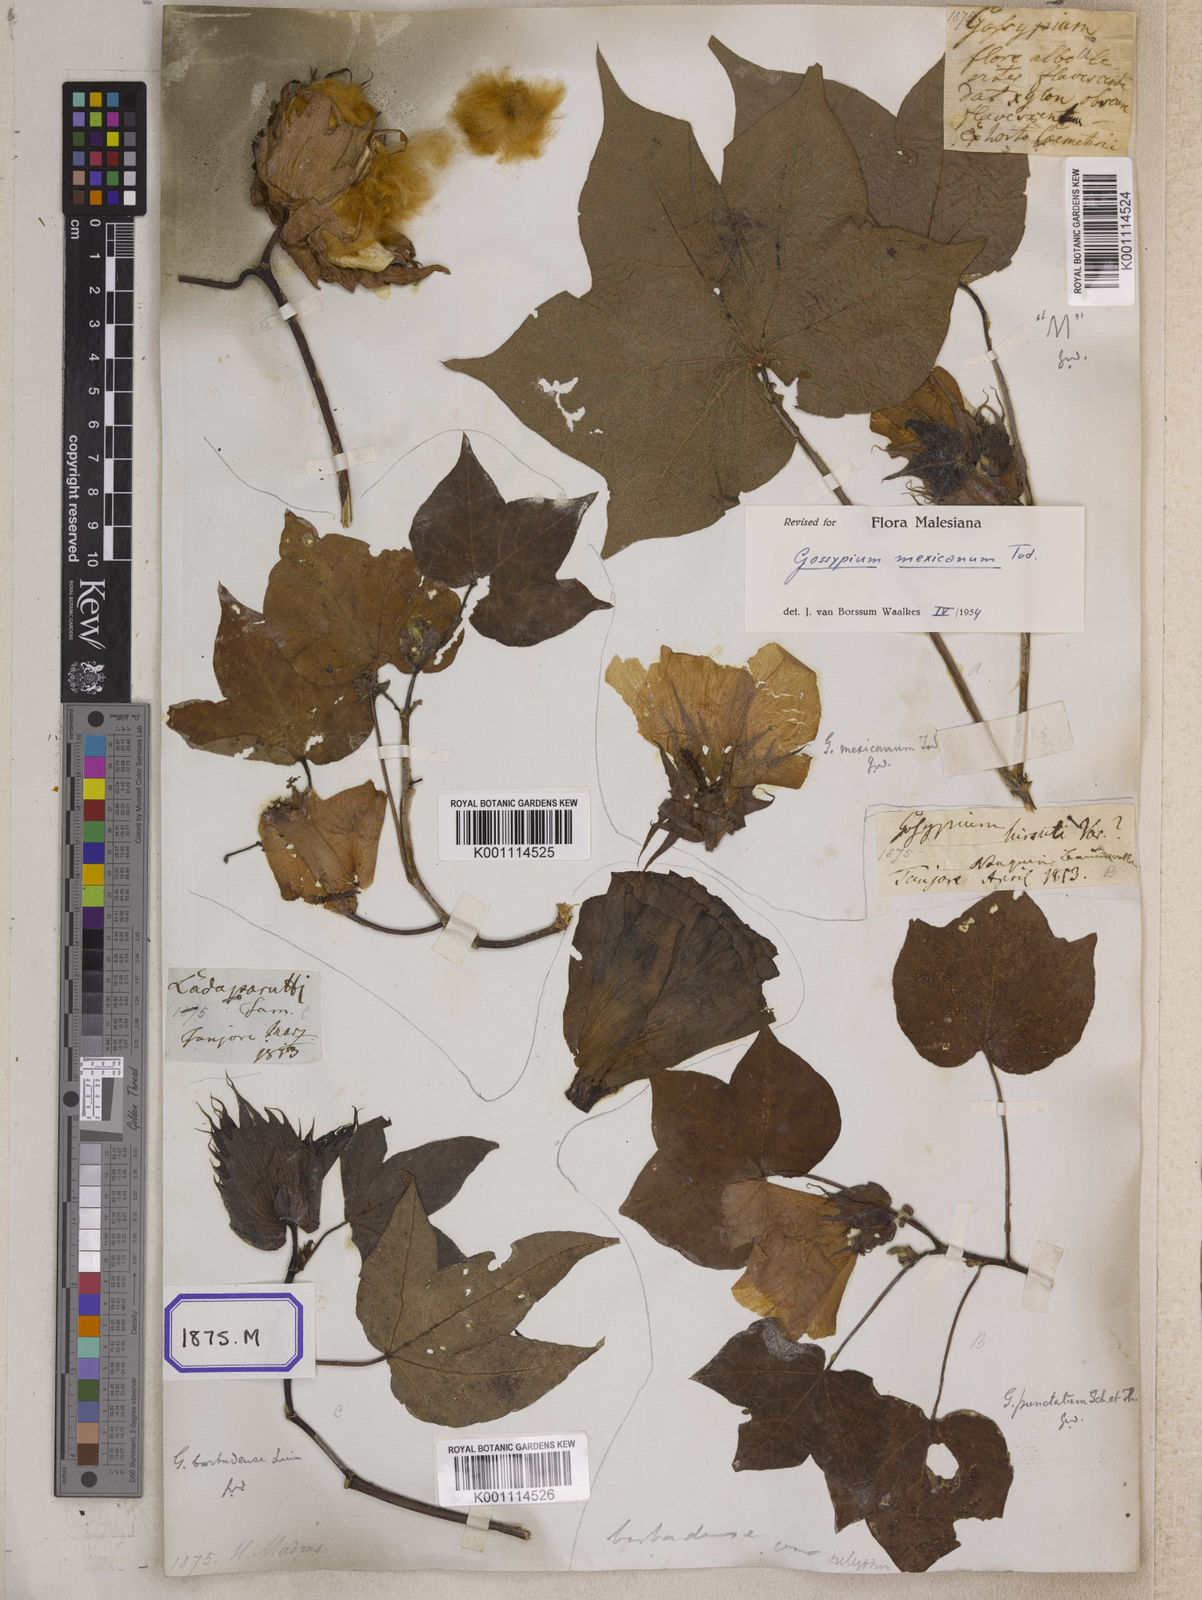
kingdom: Plantae
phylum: Tracheophyta
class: Magnoliopsida
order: Malvales
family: Malvaceae
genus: Gossypium
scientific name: Gossypium barbadense
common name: Creole cotton
